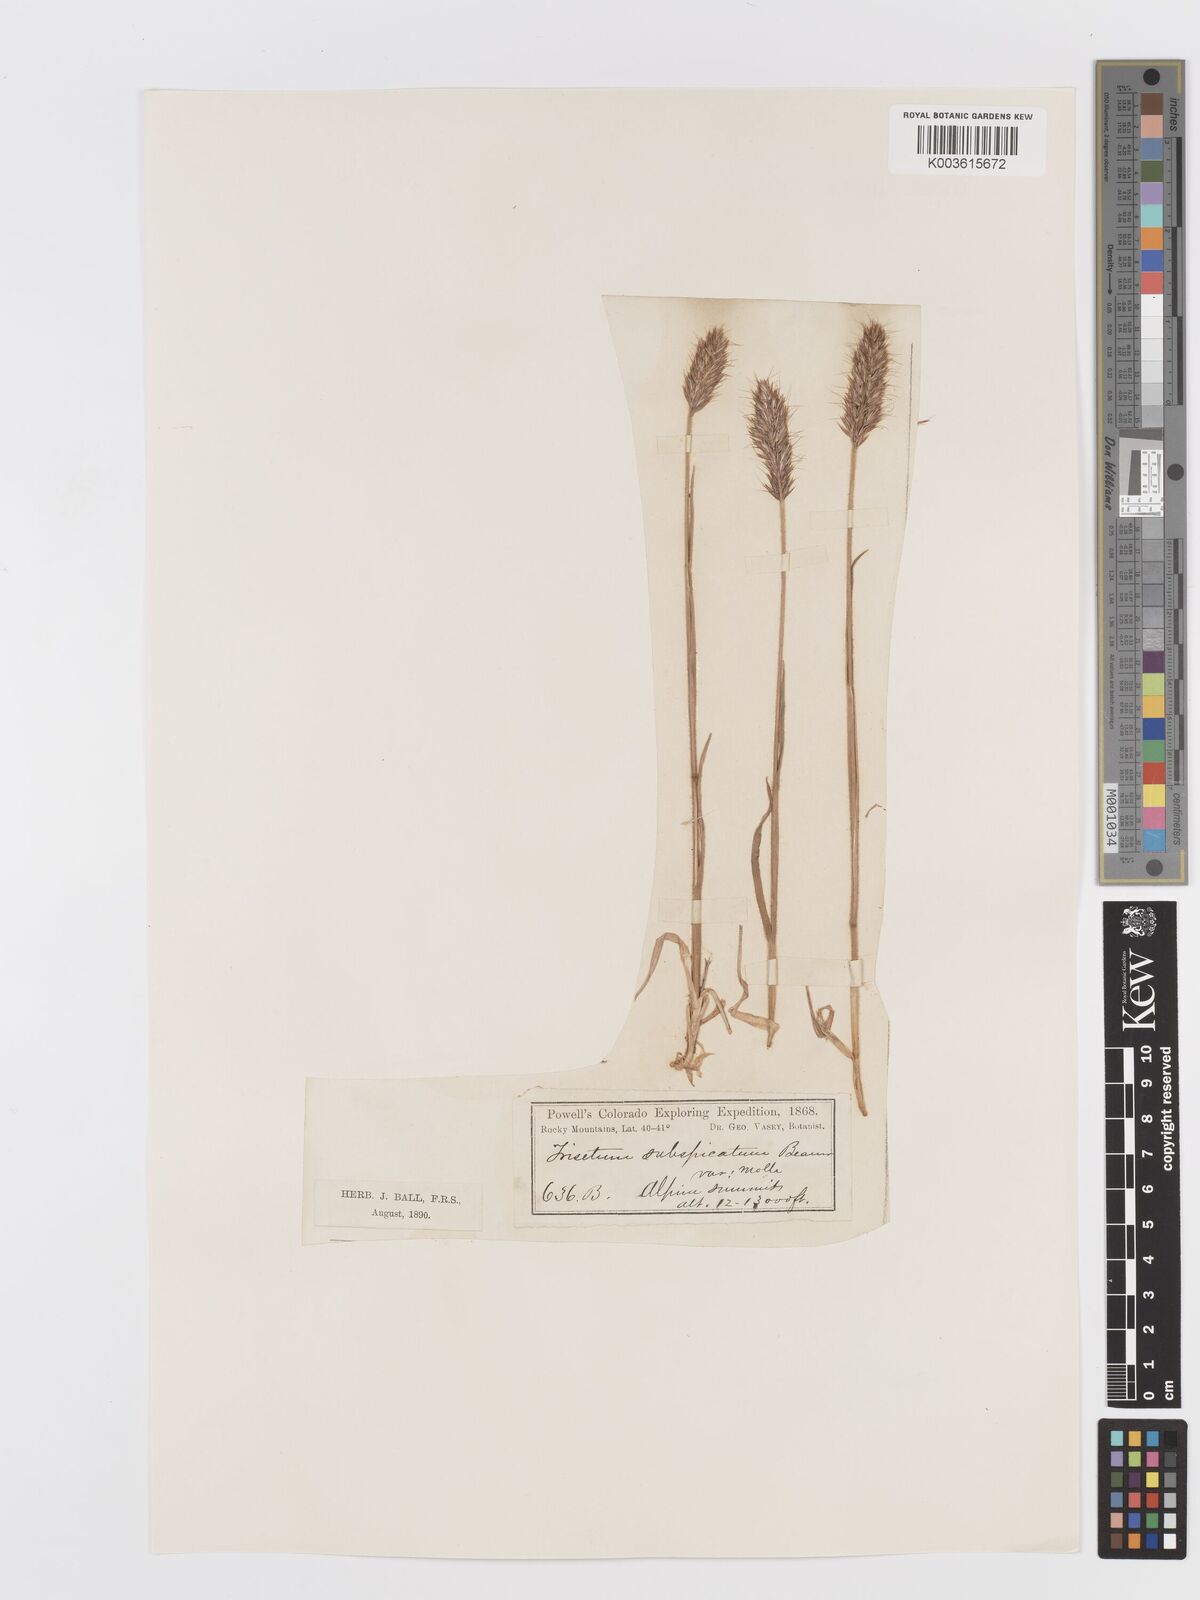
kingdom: Plantae
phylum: Tracheophyta
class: Liliopsida
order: Poales
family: Poaceae
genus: Koeleria
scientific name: Koeleria spicata
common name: Mountain trisetum
